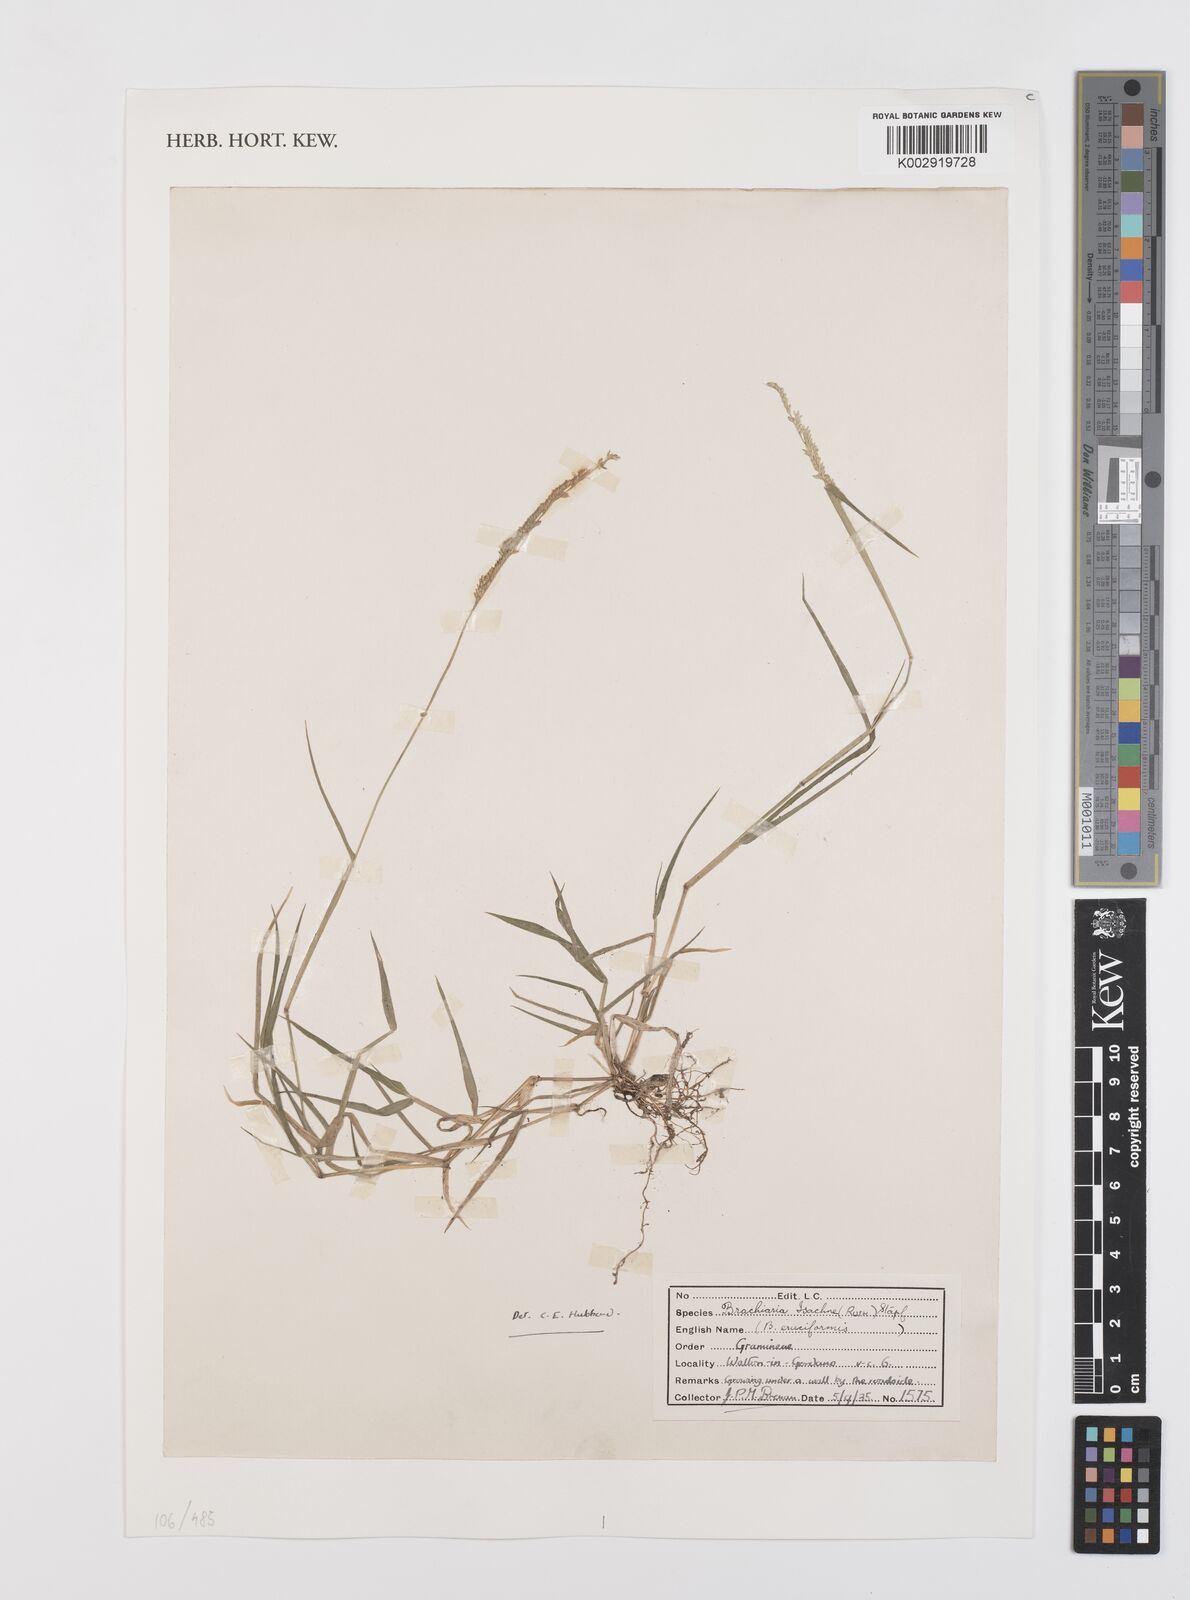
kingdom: Plantae
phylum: Tracheophyta
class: Liliopsida
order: Poales
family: Poaceae
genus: Moorochloa
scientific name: Moorochloa eruciformis
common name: Sweet signalgrass
